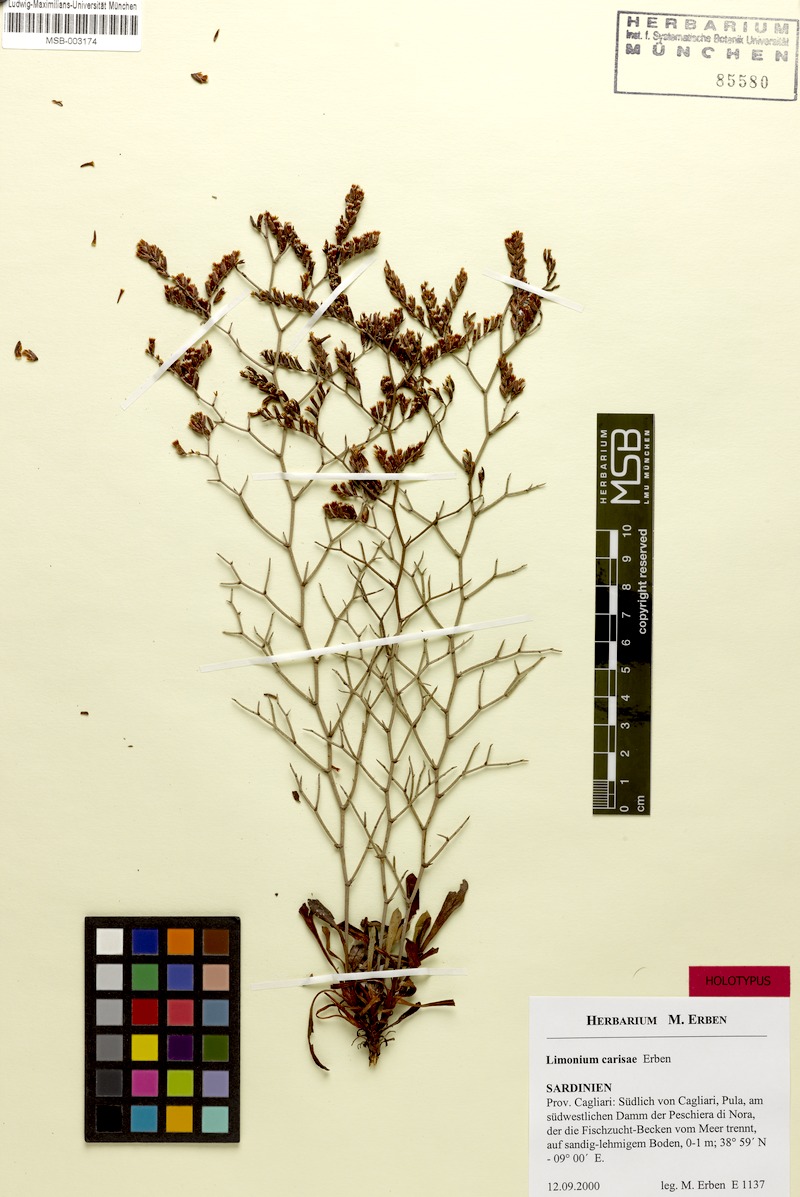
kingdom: Plantae
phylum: Tracheophyta
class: Magnoliopsida
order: Caryophyllales
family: Plumbaginaceae
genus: Limonium
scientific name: Limonium carisae
